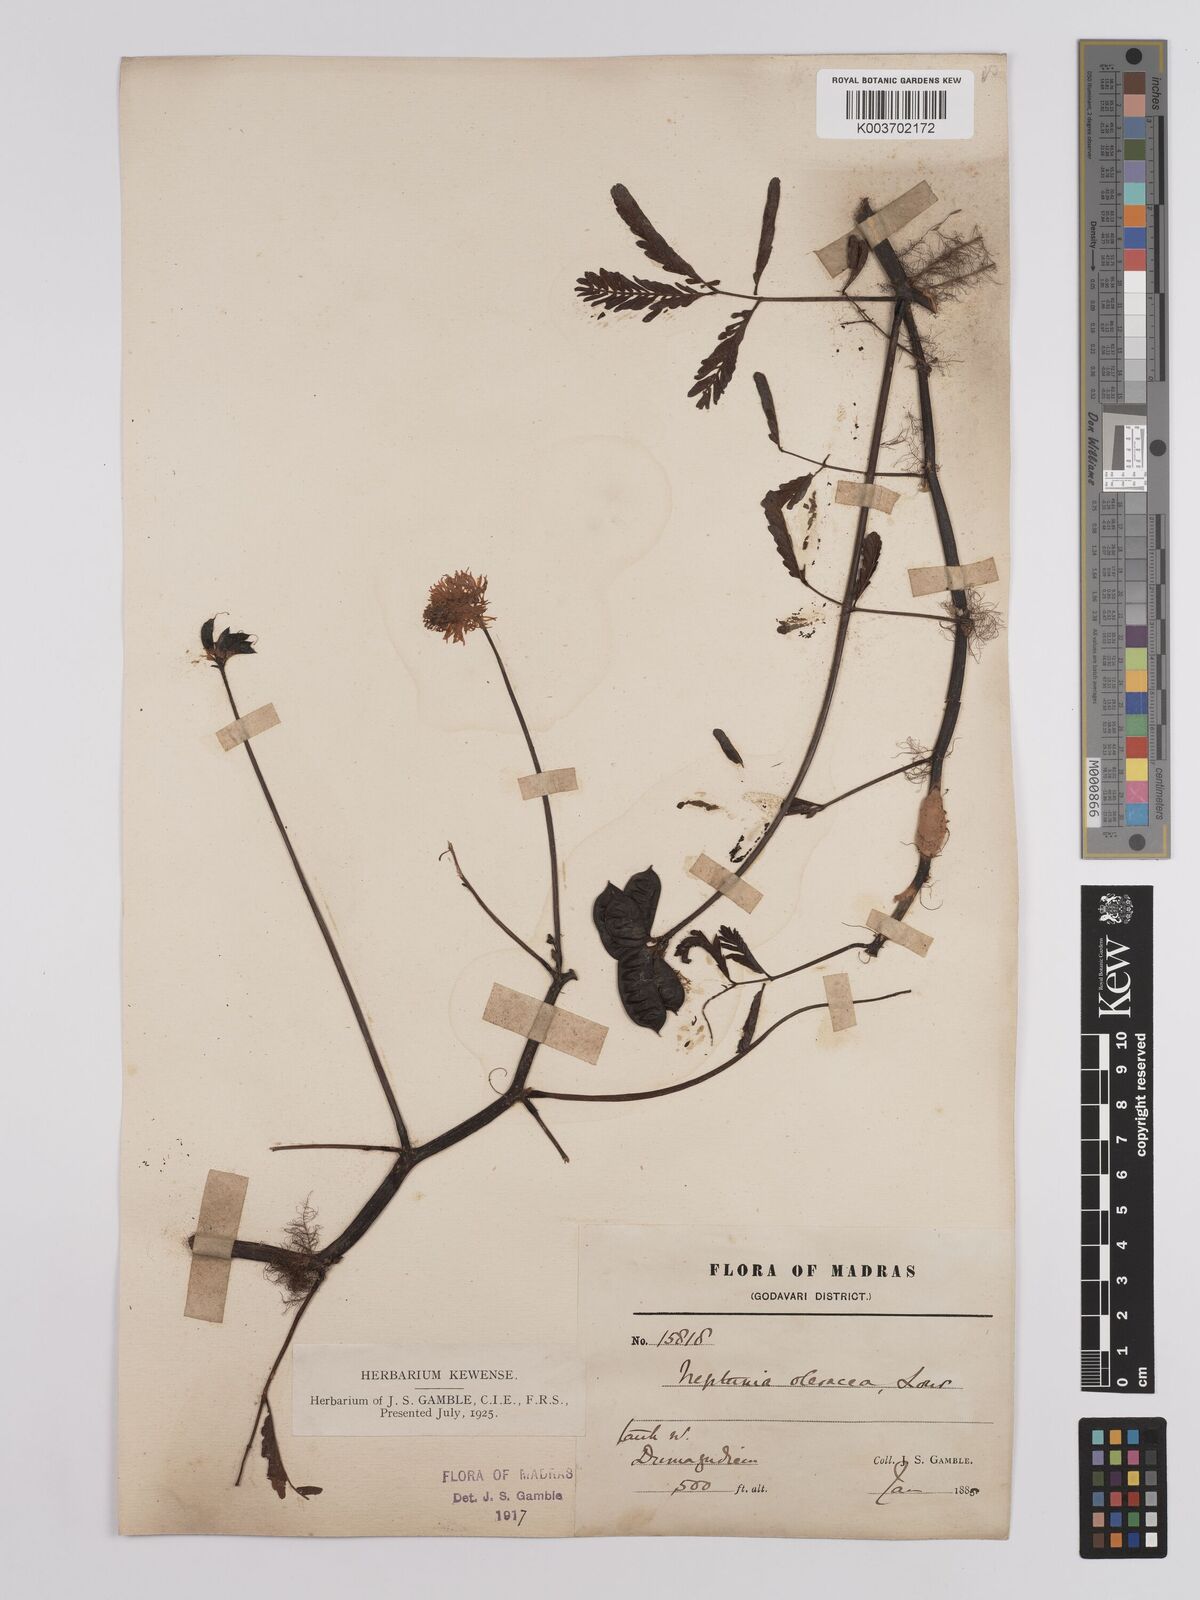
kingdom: Plantae
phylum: Tracheophyta
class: Magnoliopsida
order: Fabales
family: Fabaceae
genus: Neptunia
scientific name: Neptunia prostrata
